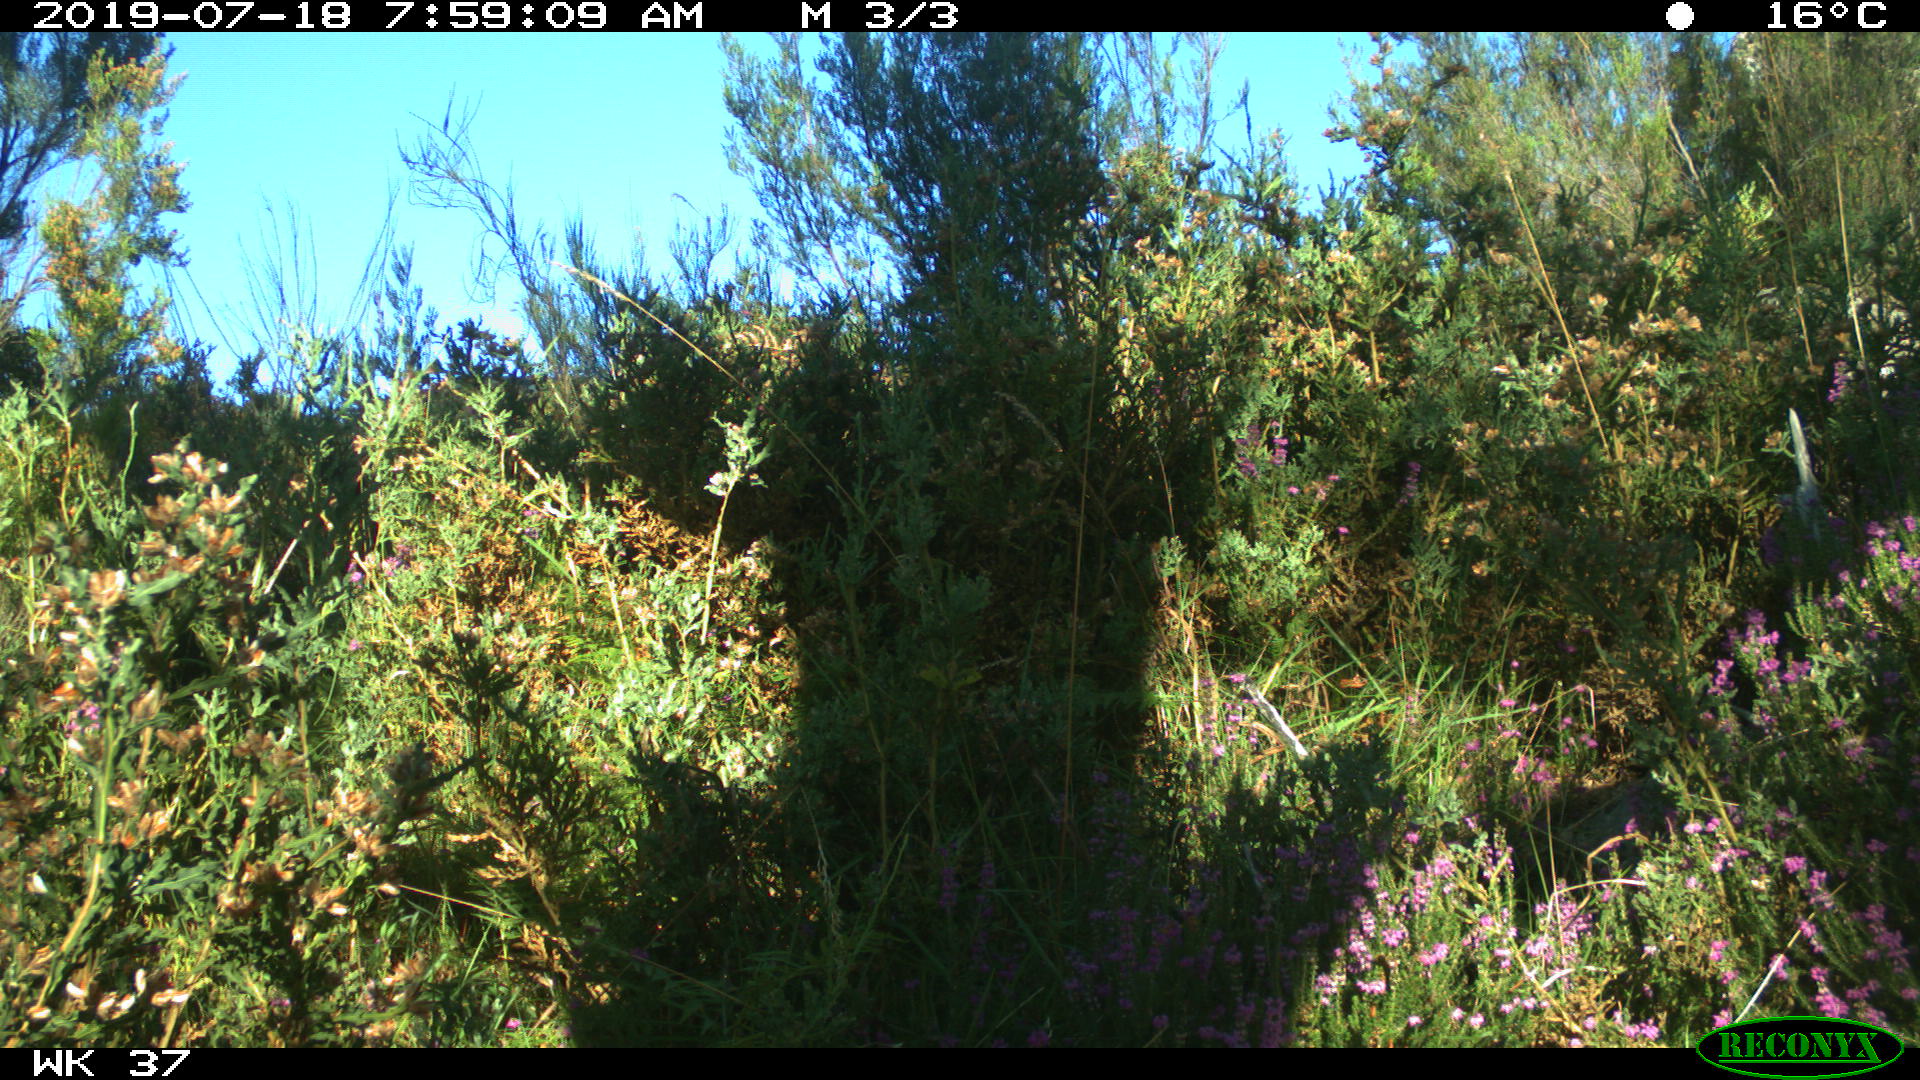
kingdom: Animalia
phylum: Chordata
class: Mammalia
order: Artiodactyla
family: Suidae
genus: Sus
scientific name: Sus scrofa
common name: Wild boar
